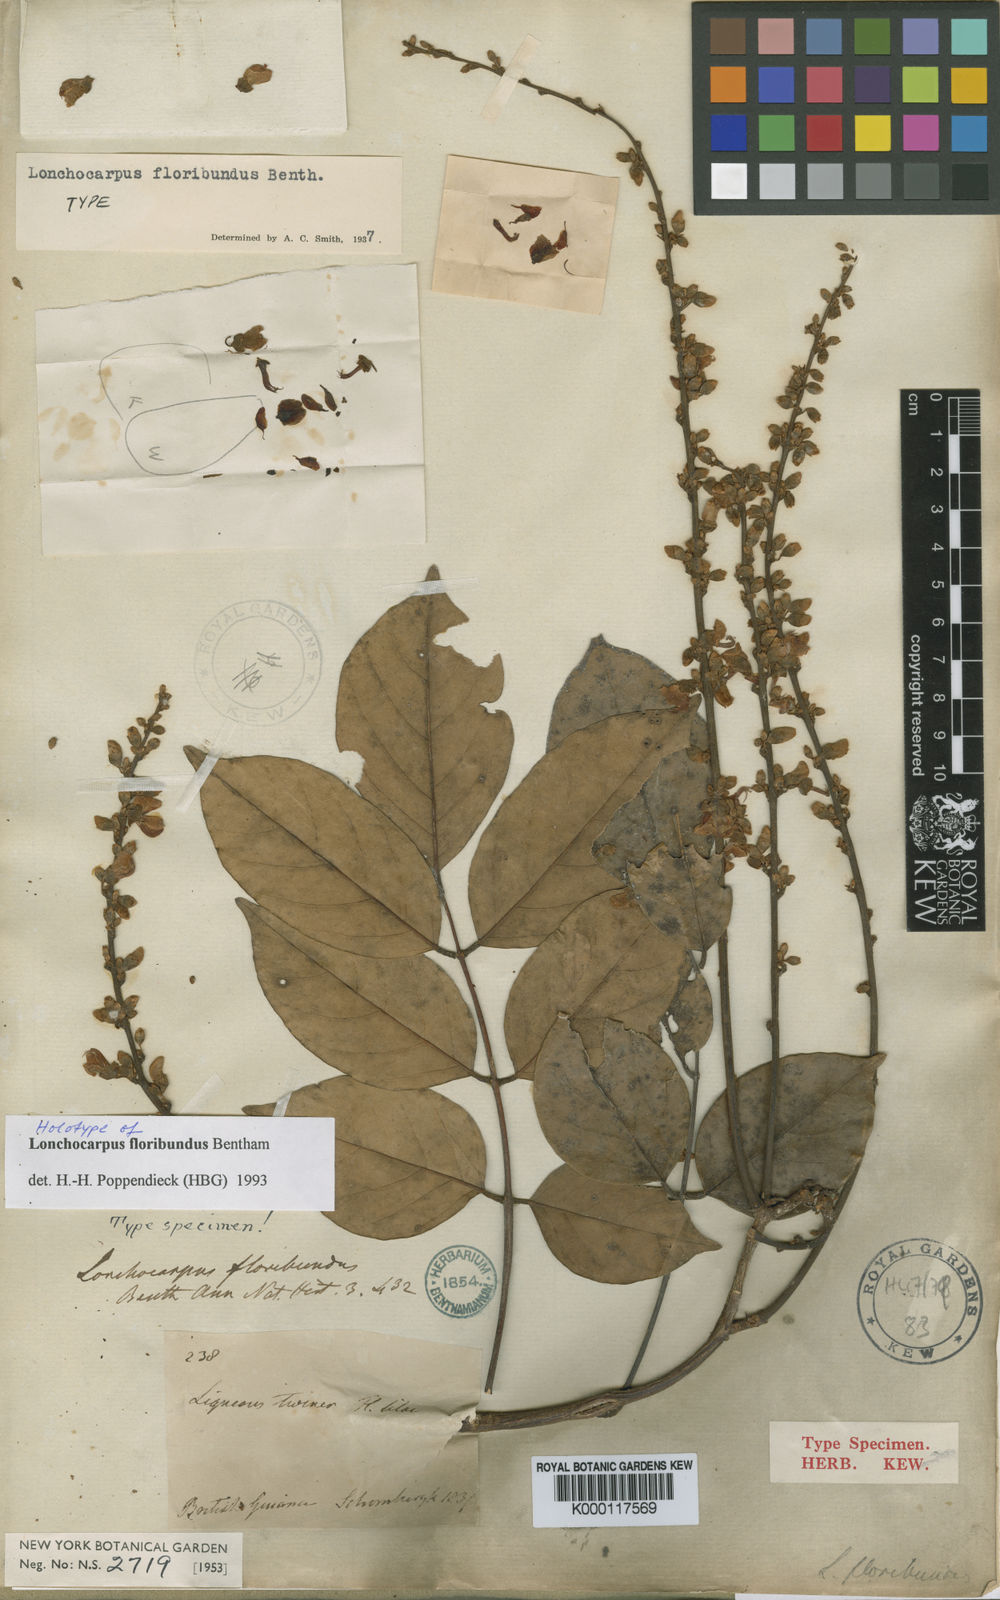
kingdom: Plantae
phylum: Tracheophyta
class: Magnoliopsida
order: Fabales
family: Fabaceae
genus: Deguelia
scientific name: Deguelia nitidula
